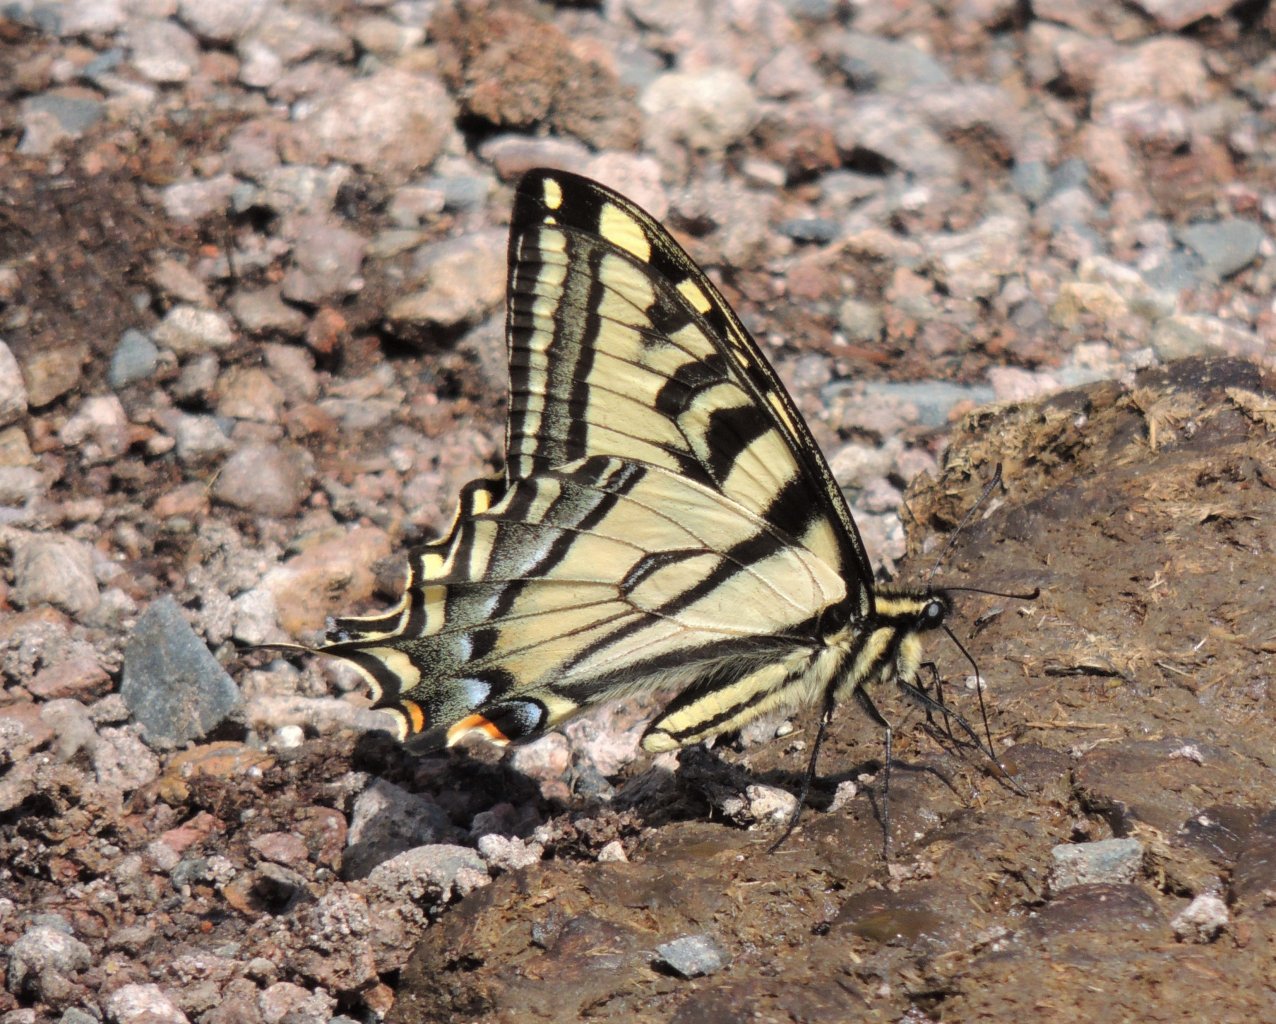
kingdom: Animalia
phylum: Arthropoda
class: Insecta
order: Lepidoptera
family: Papilionidae
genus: Pterourus
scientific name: Pterourus rutulus
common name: Western Tiger Swallowtail
